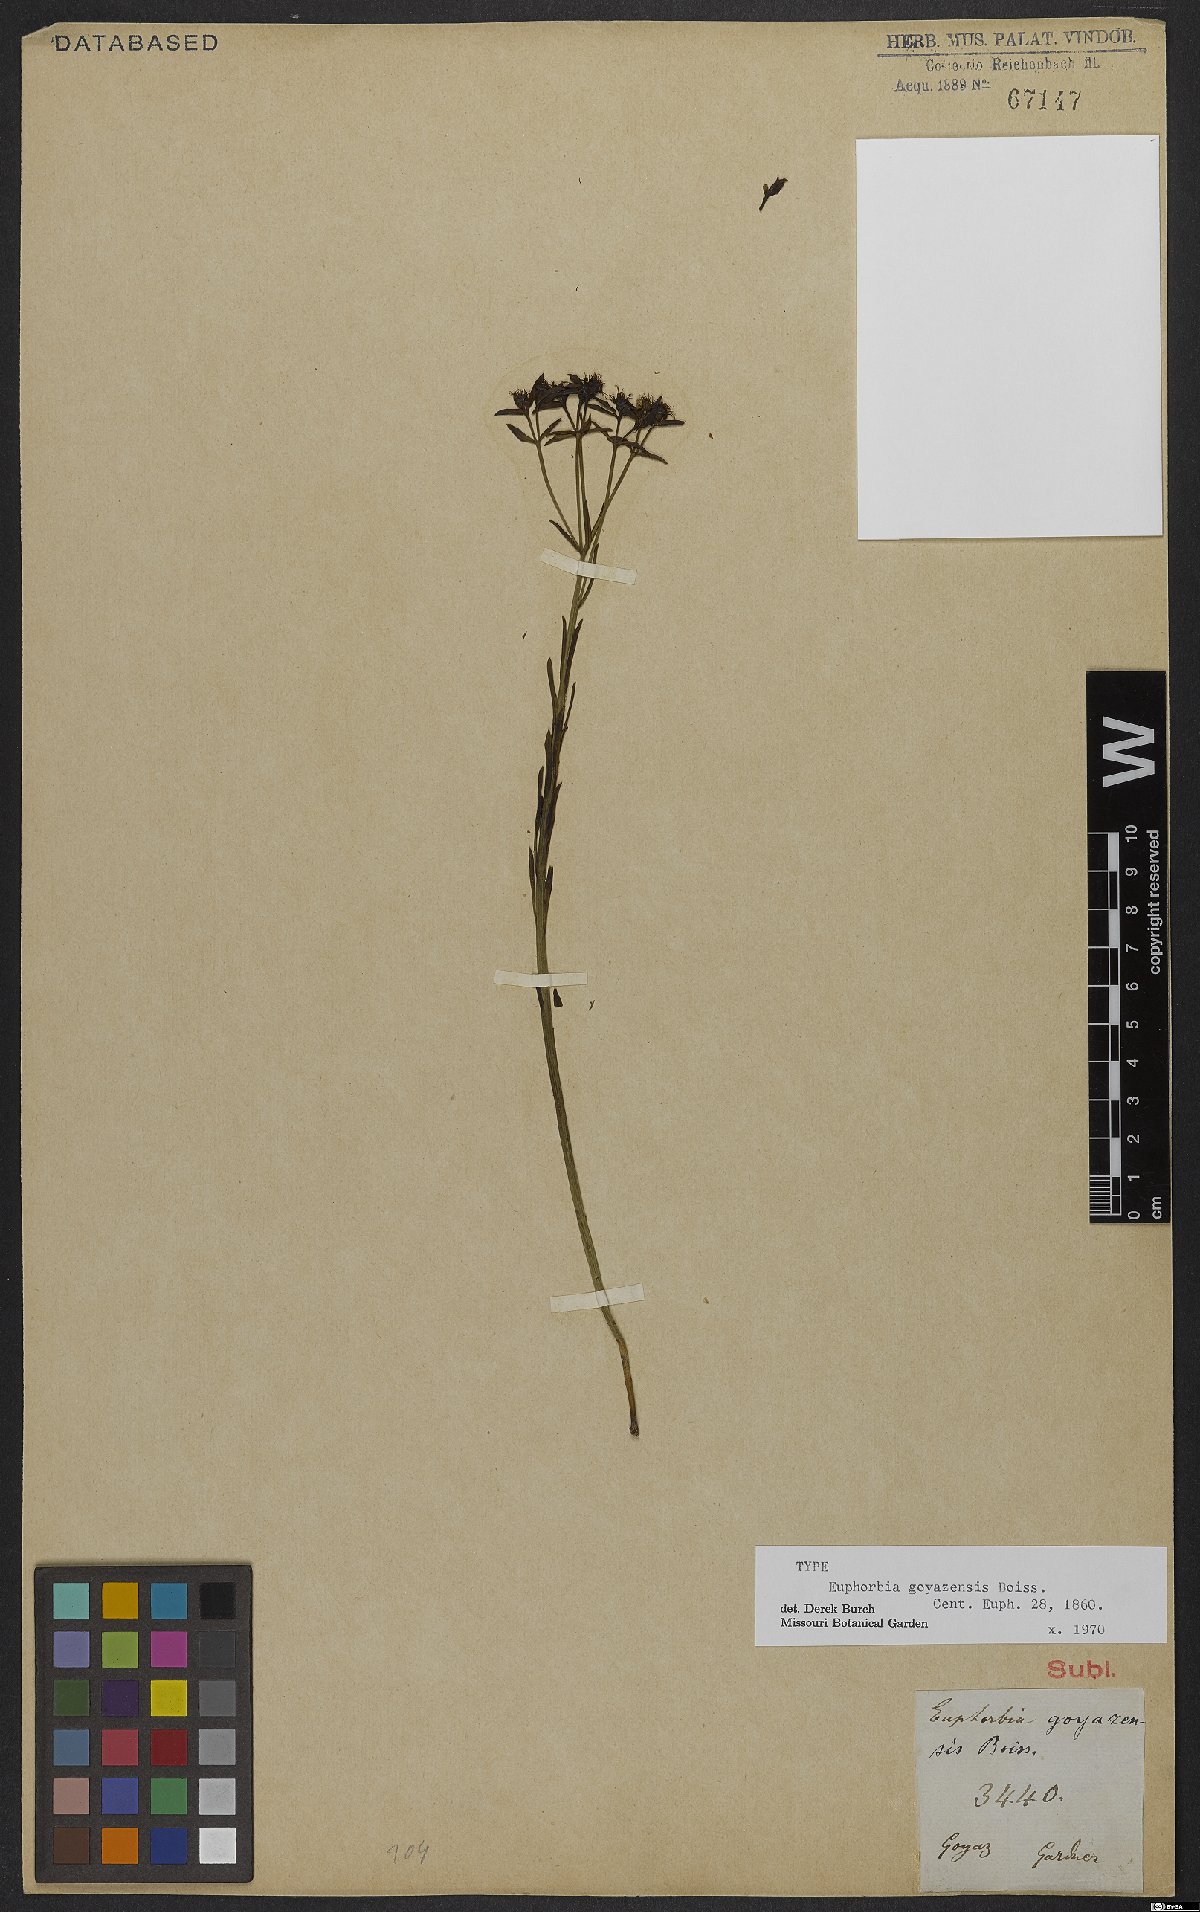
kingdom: Plantae
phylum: Tracheophyta
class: Magnoliopsida
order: Malpighiales
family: Euphorbiaceae
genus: Euphorbia
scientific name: Euphorbia goyazensis
